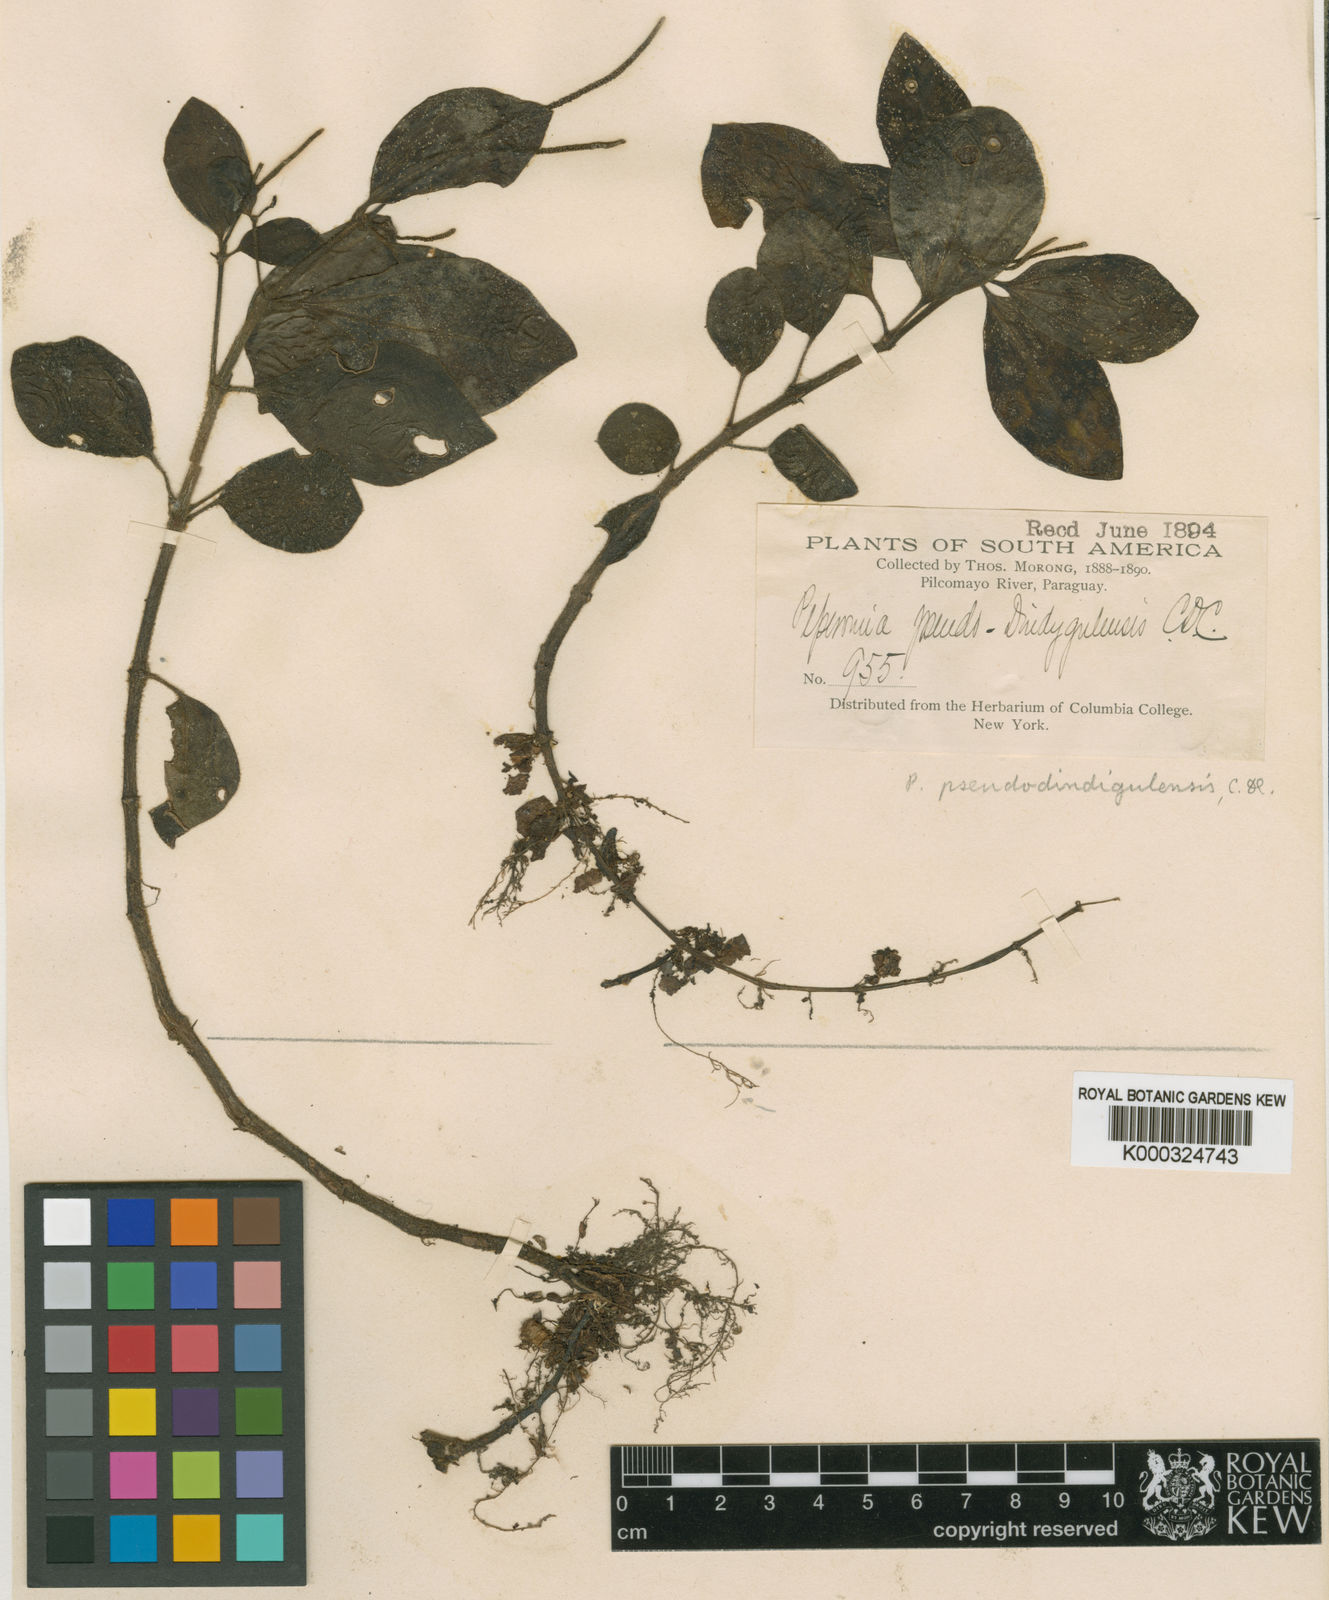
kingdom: Plantae
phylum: Tracheophyta
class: Magnoliopsida
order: Piperales
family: Piperaceae
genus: Peperomia
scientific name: Peperomia increscens
